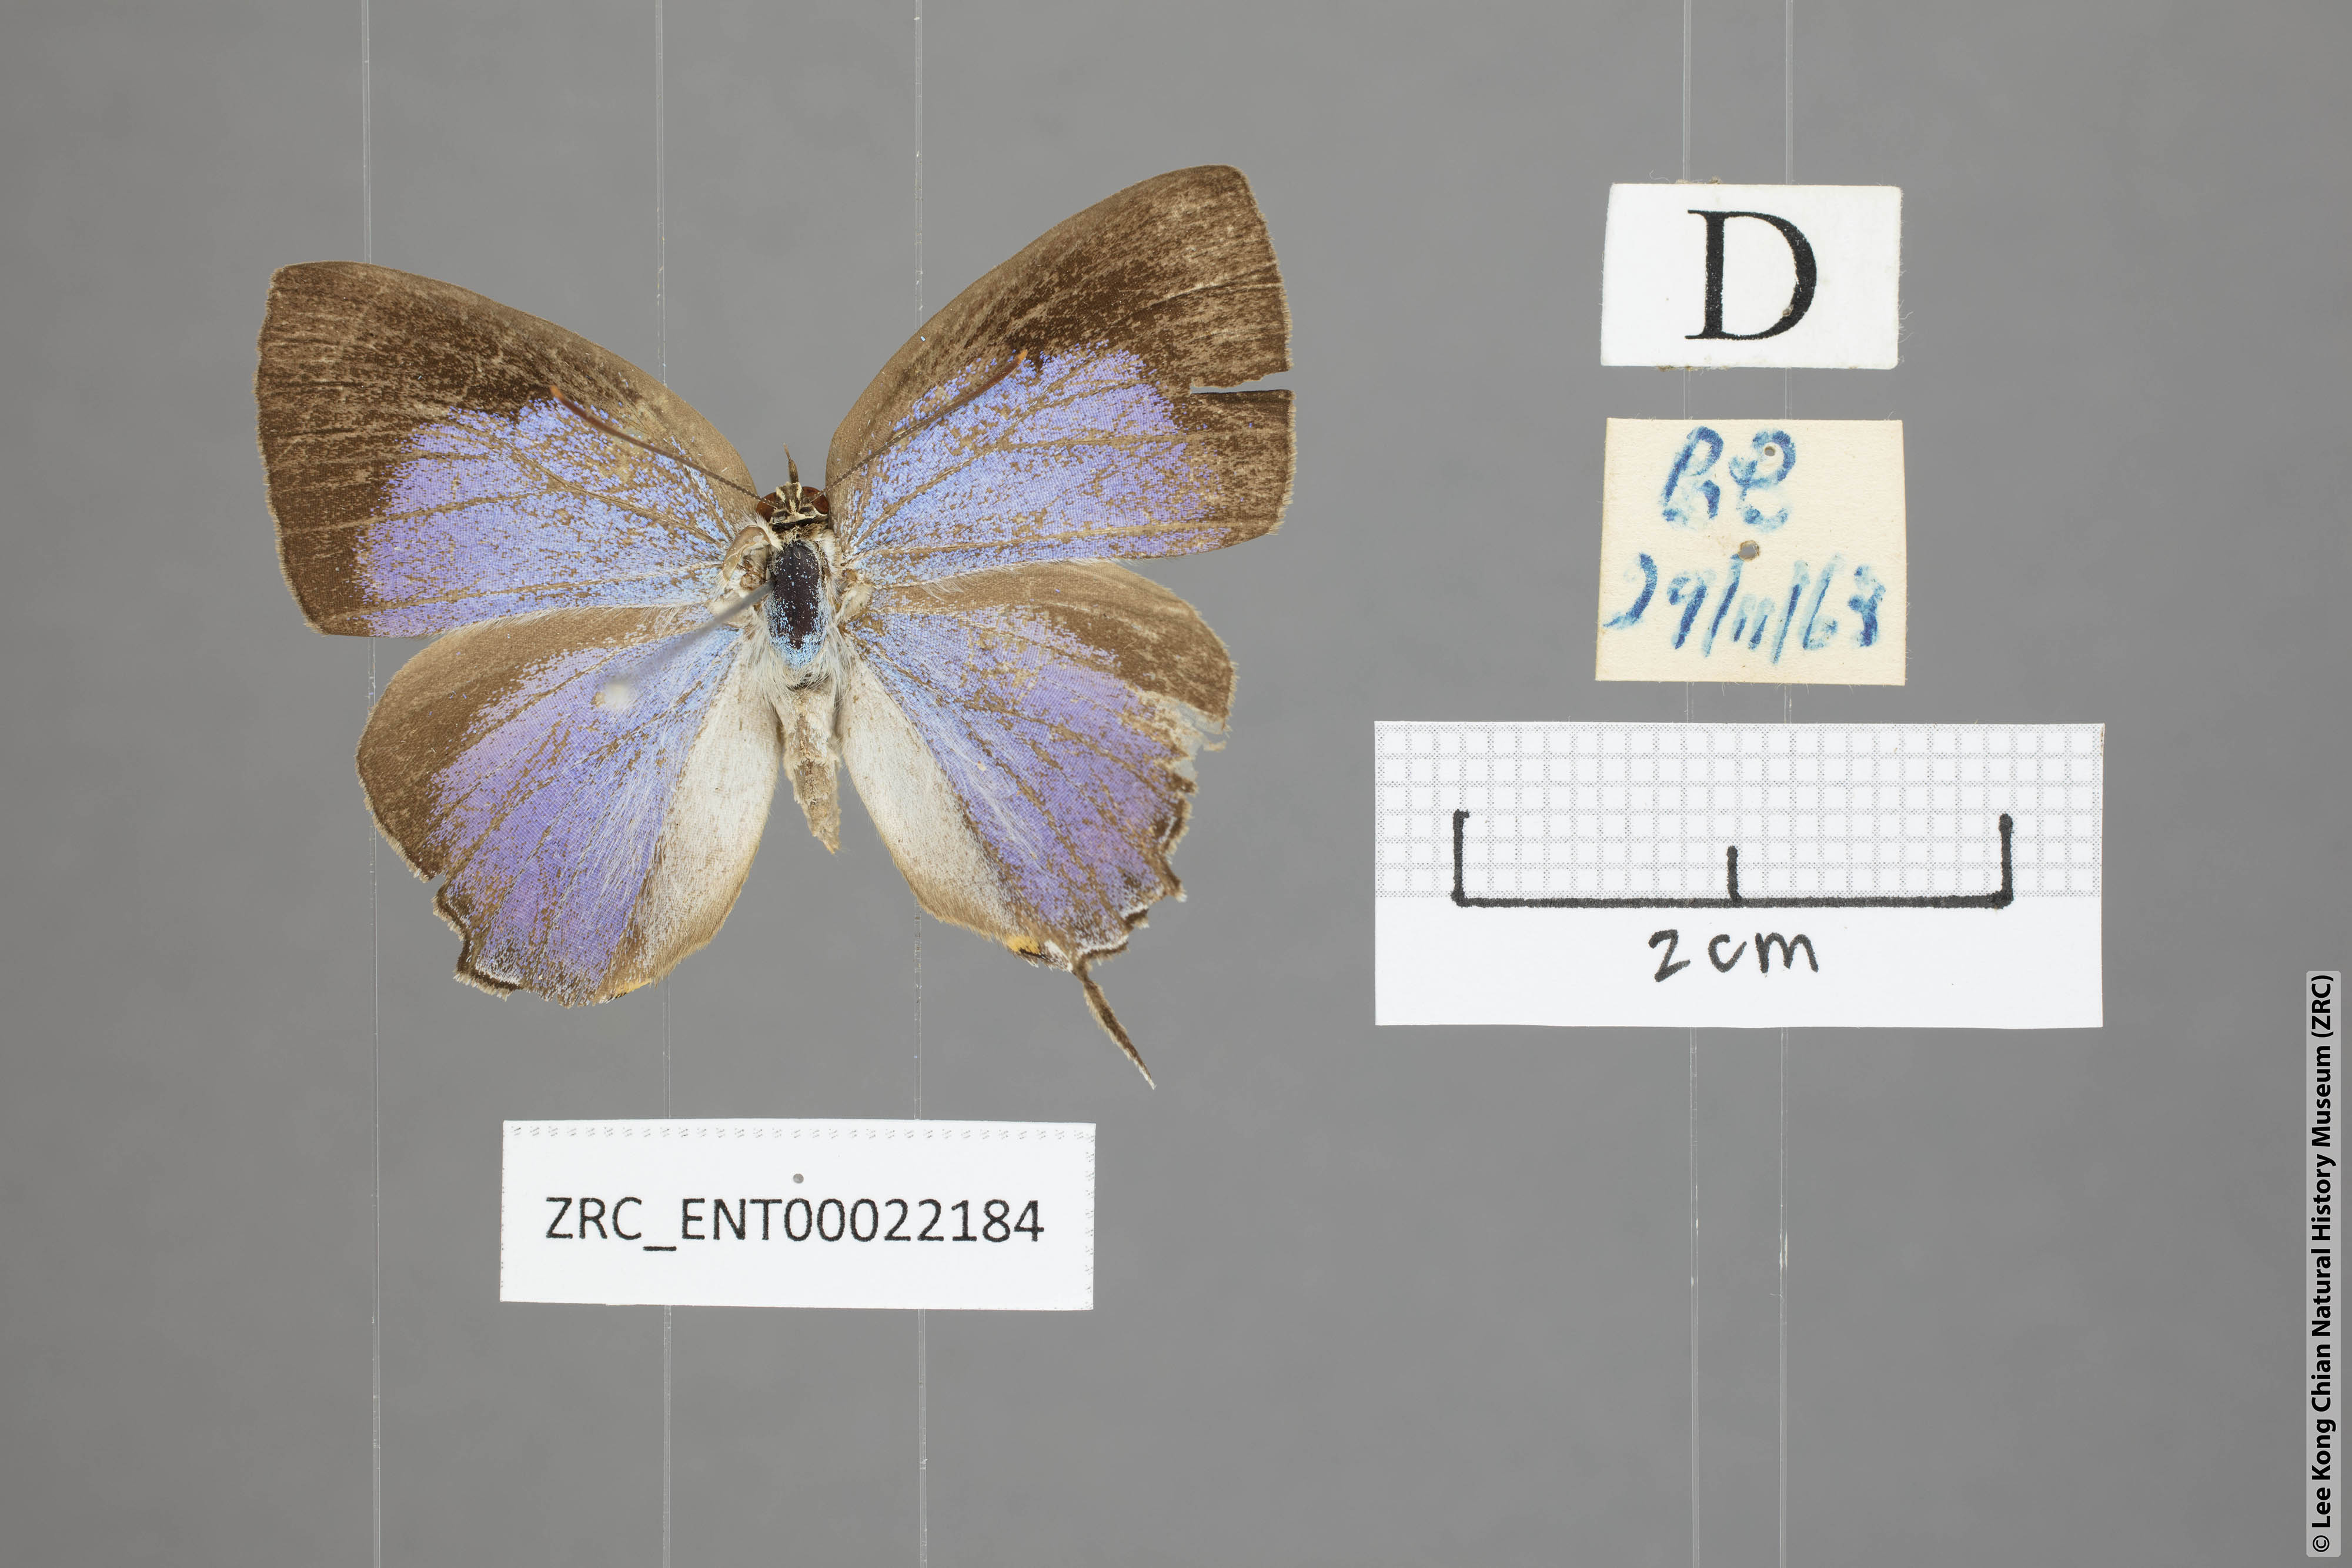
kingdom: Animalia
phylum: Arthropoda
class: Insecta
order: Lepidoptera
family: Lycaenidae
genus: Tajuria
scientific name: Tajuria deudaix
